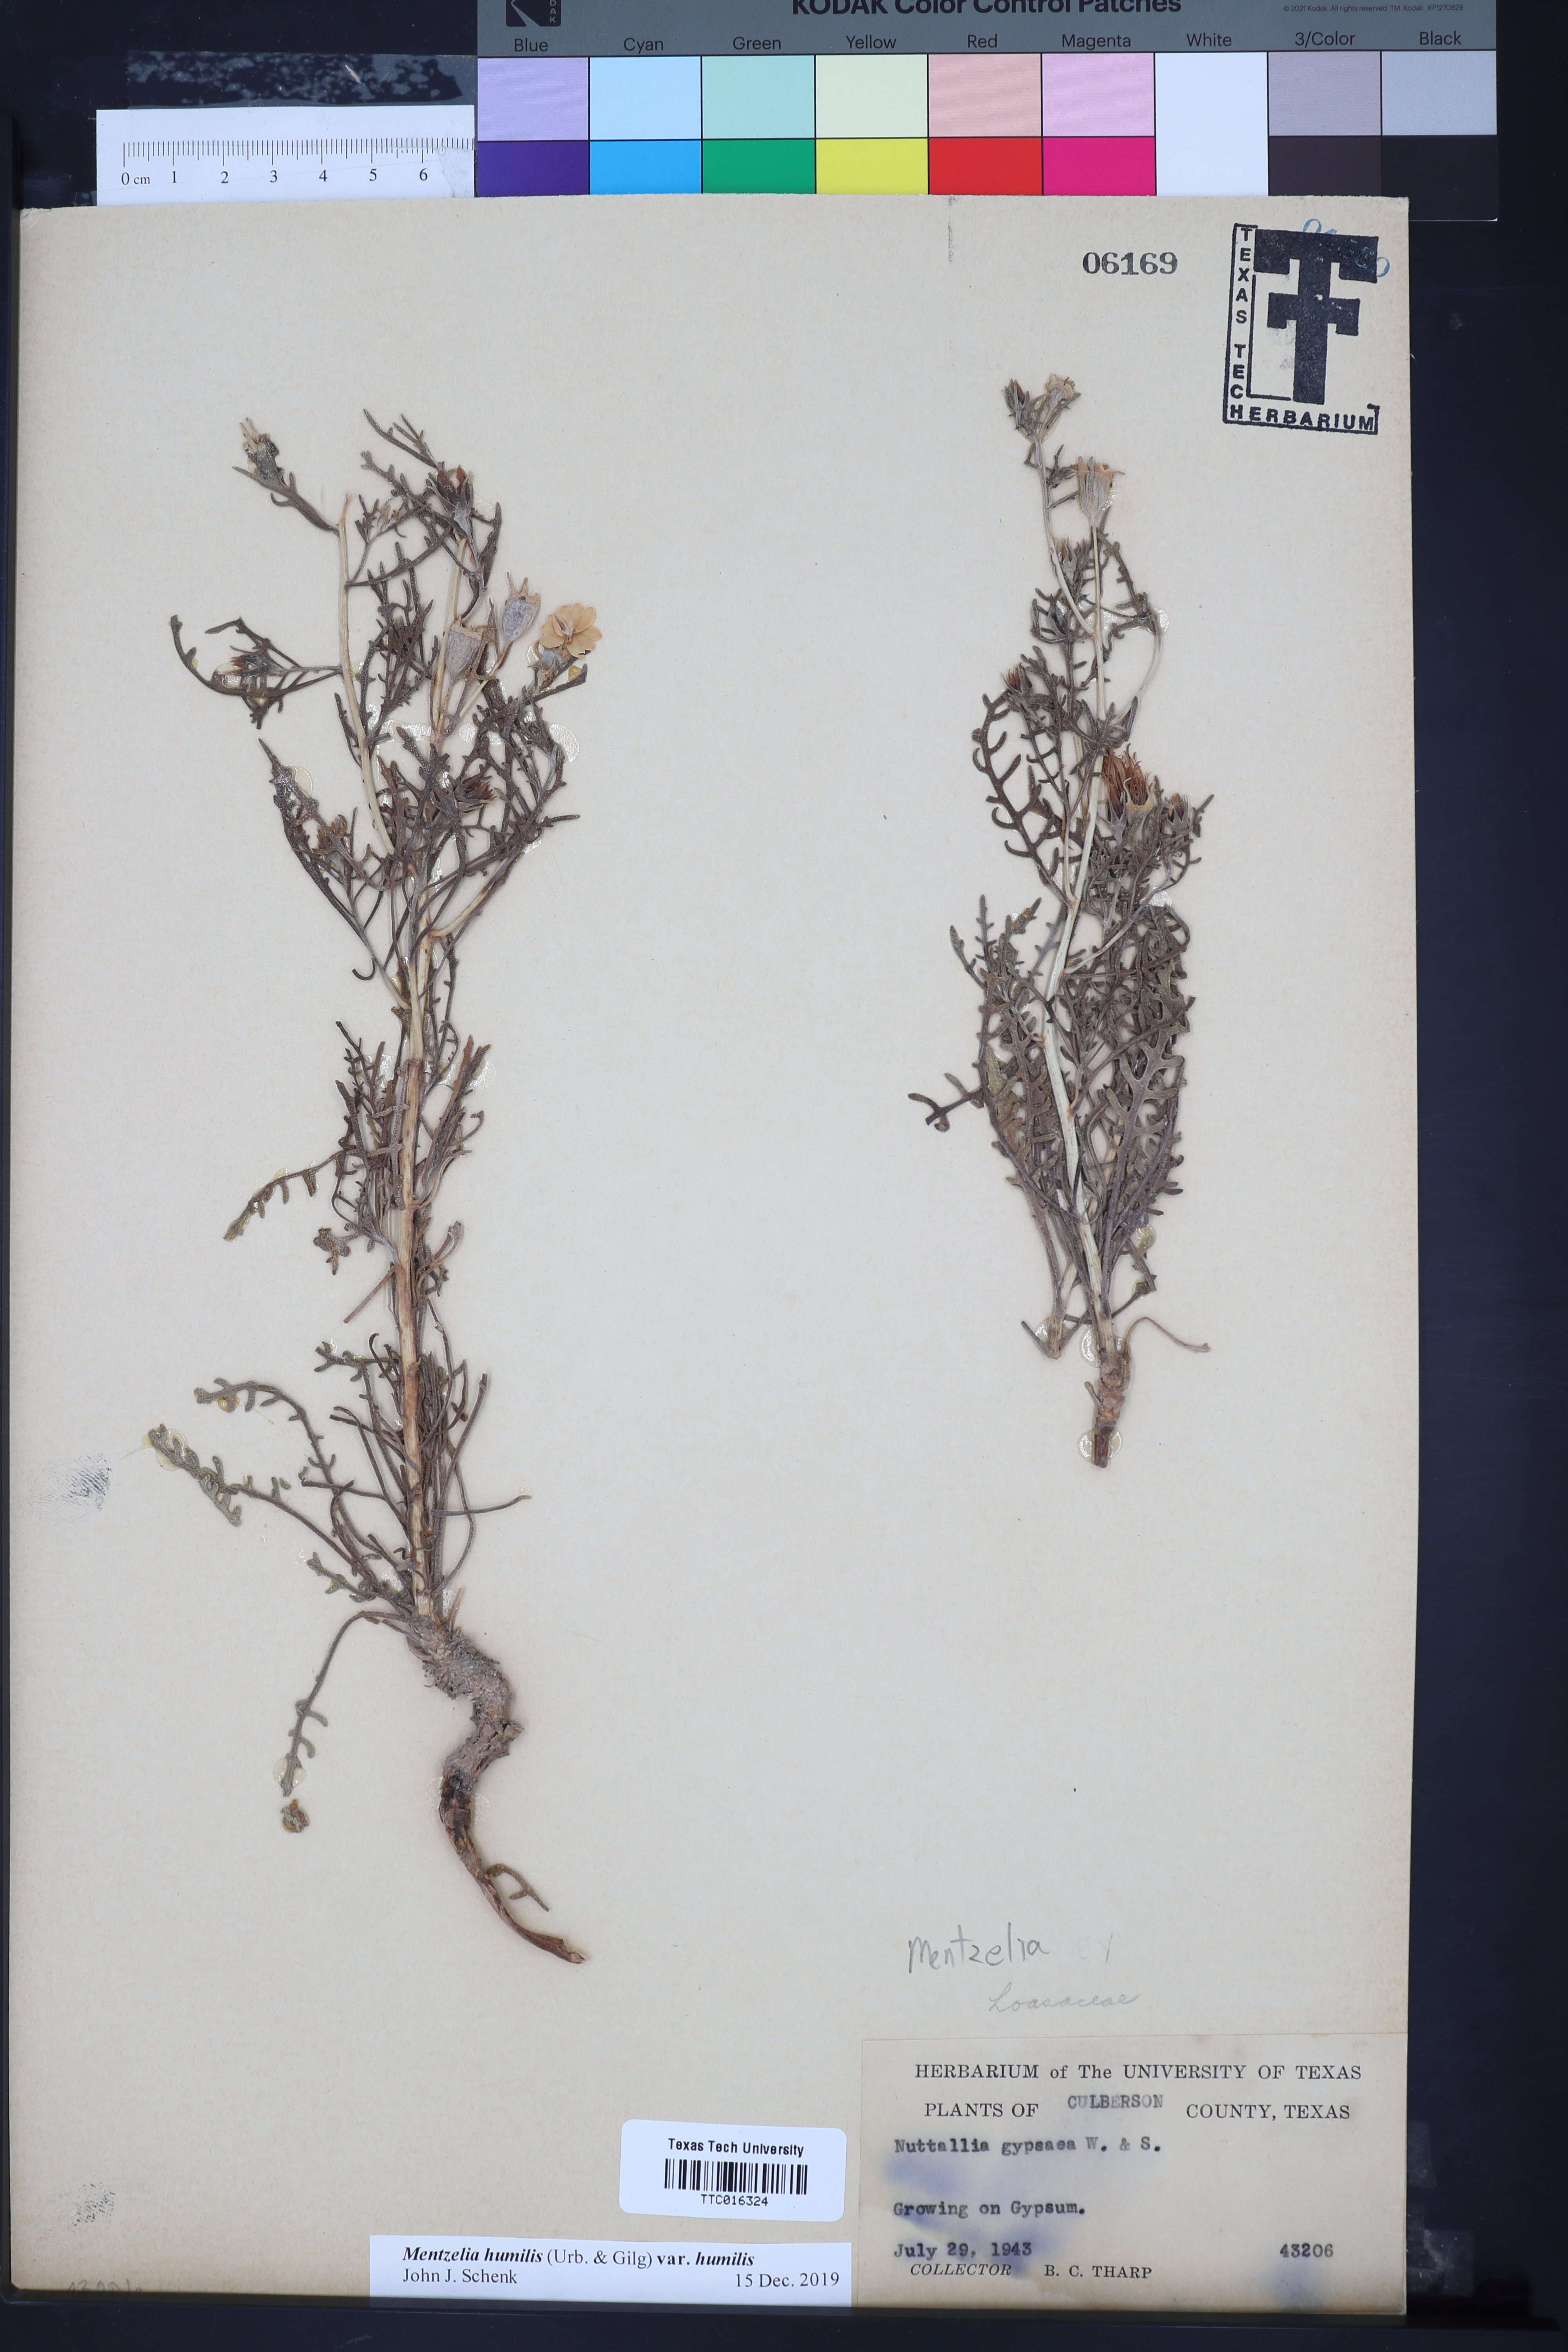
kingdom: Plantae
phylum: Tracheophyta
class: Magnoliopsida
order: Cornales
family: Loasaceae
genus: Mentzelia
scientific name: Mentzelia humilis
